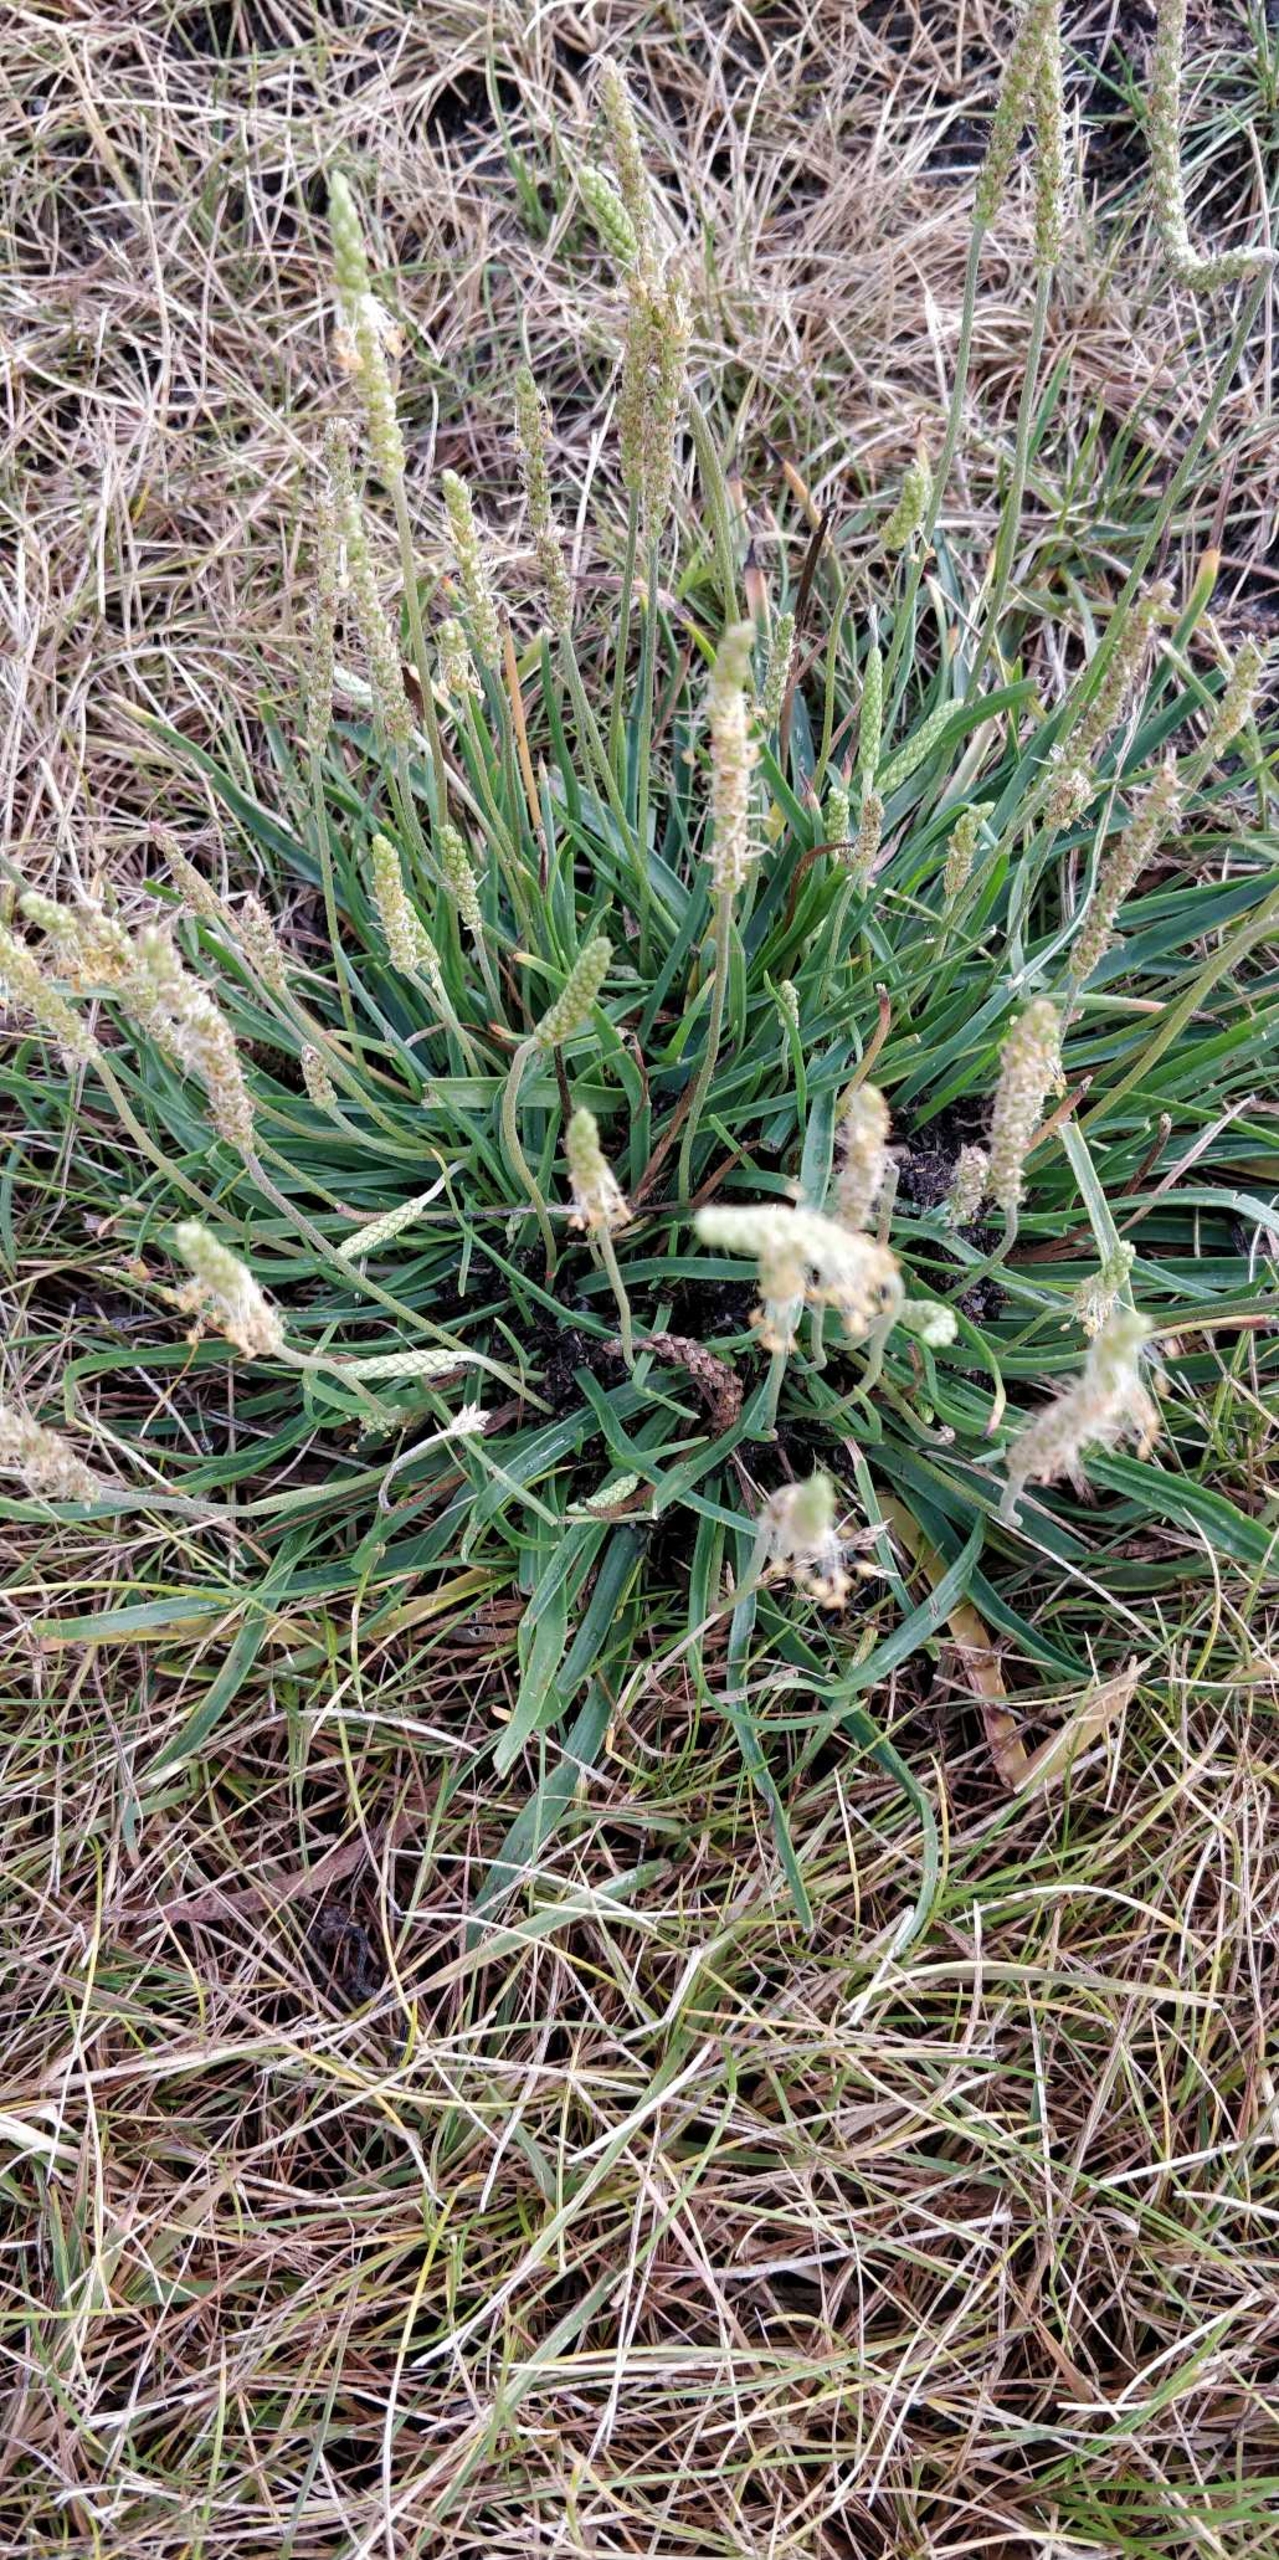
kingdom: Plantae
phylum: Tracheophyta
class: Magnoliopsida
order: Lamiales
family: Plantaginaceae
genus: Plantago
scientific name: Plantago maritima
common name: Strand-vejbred
